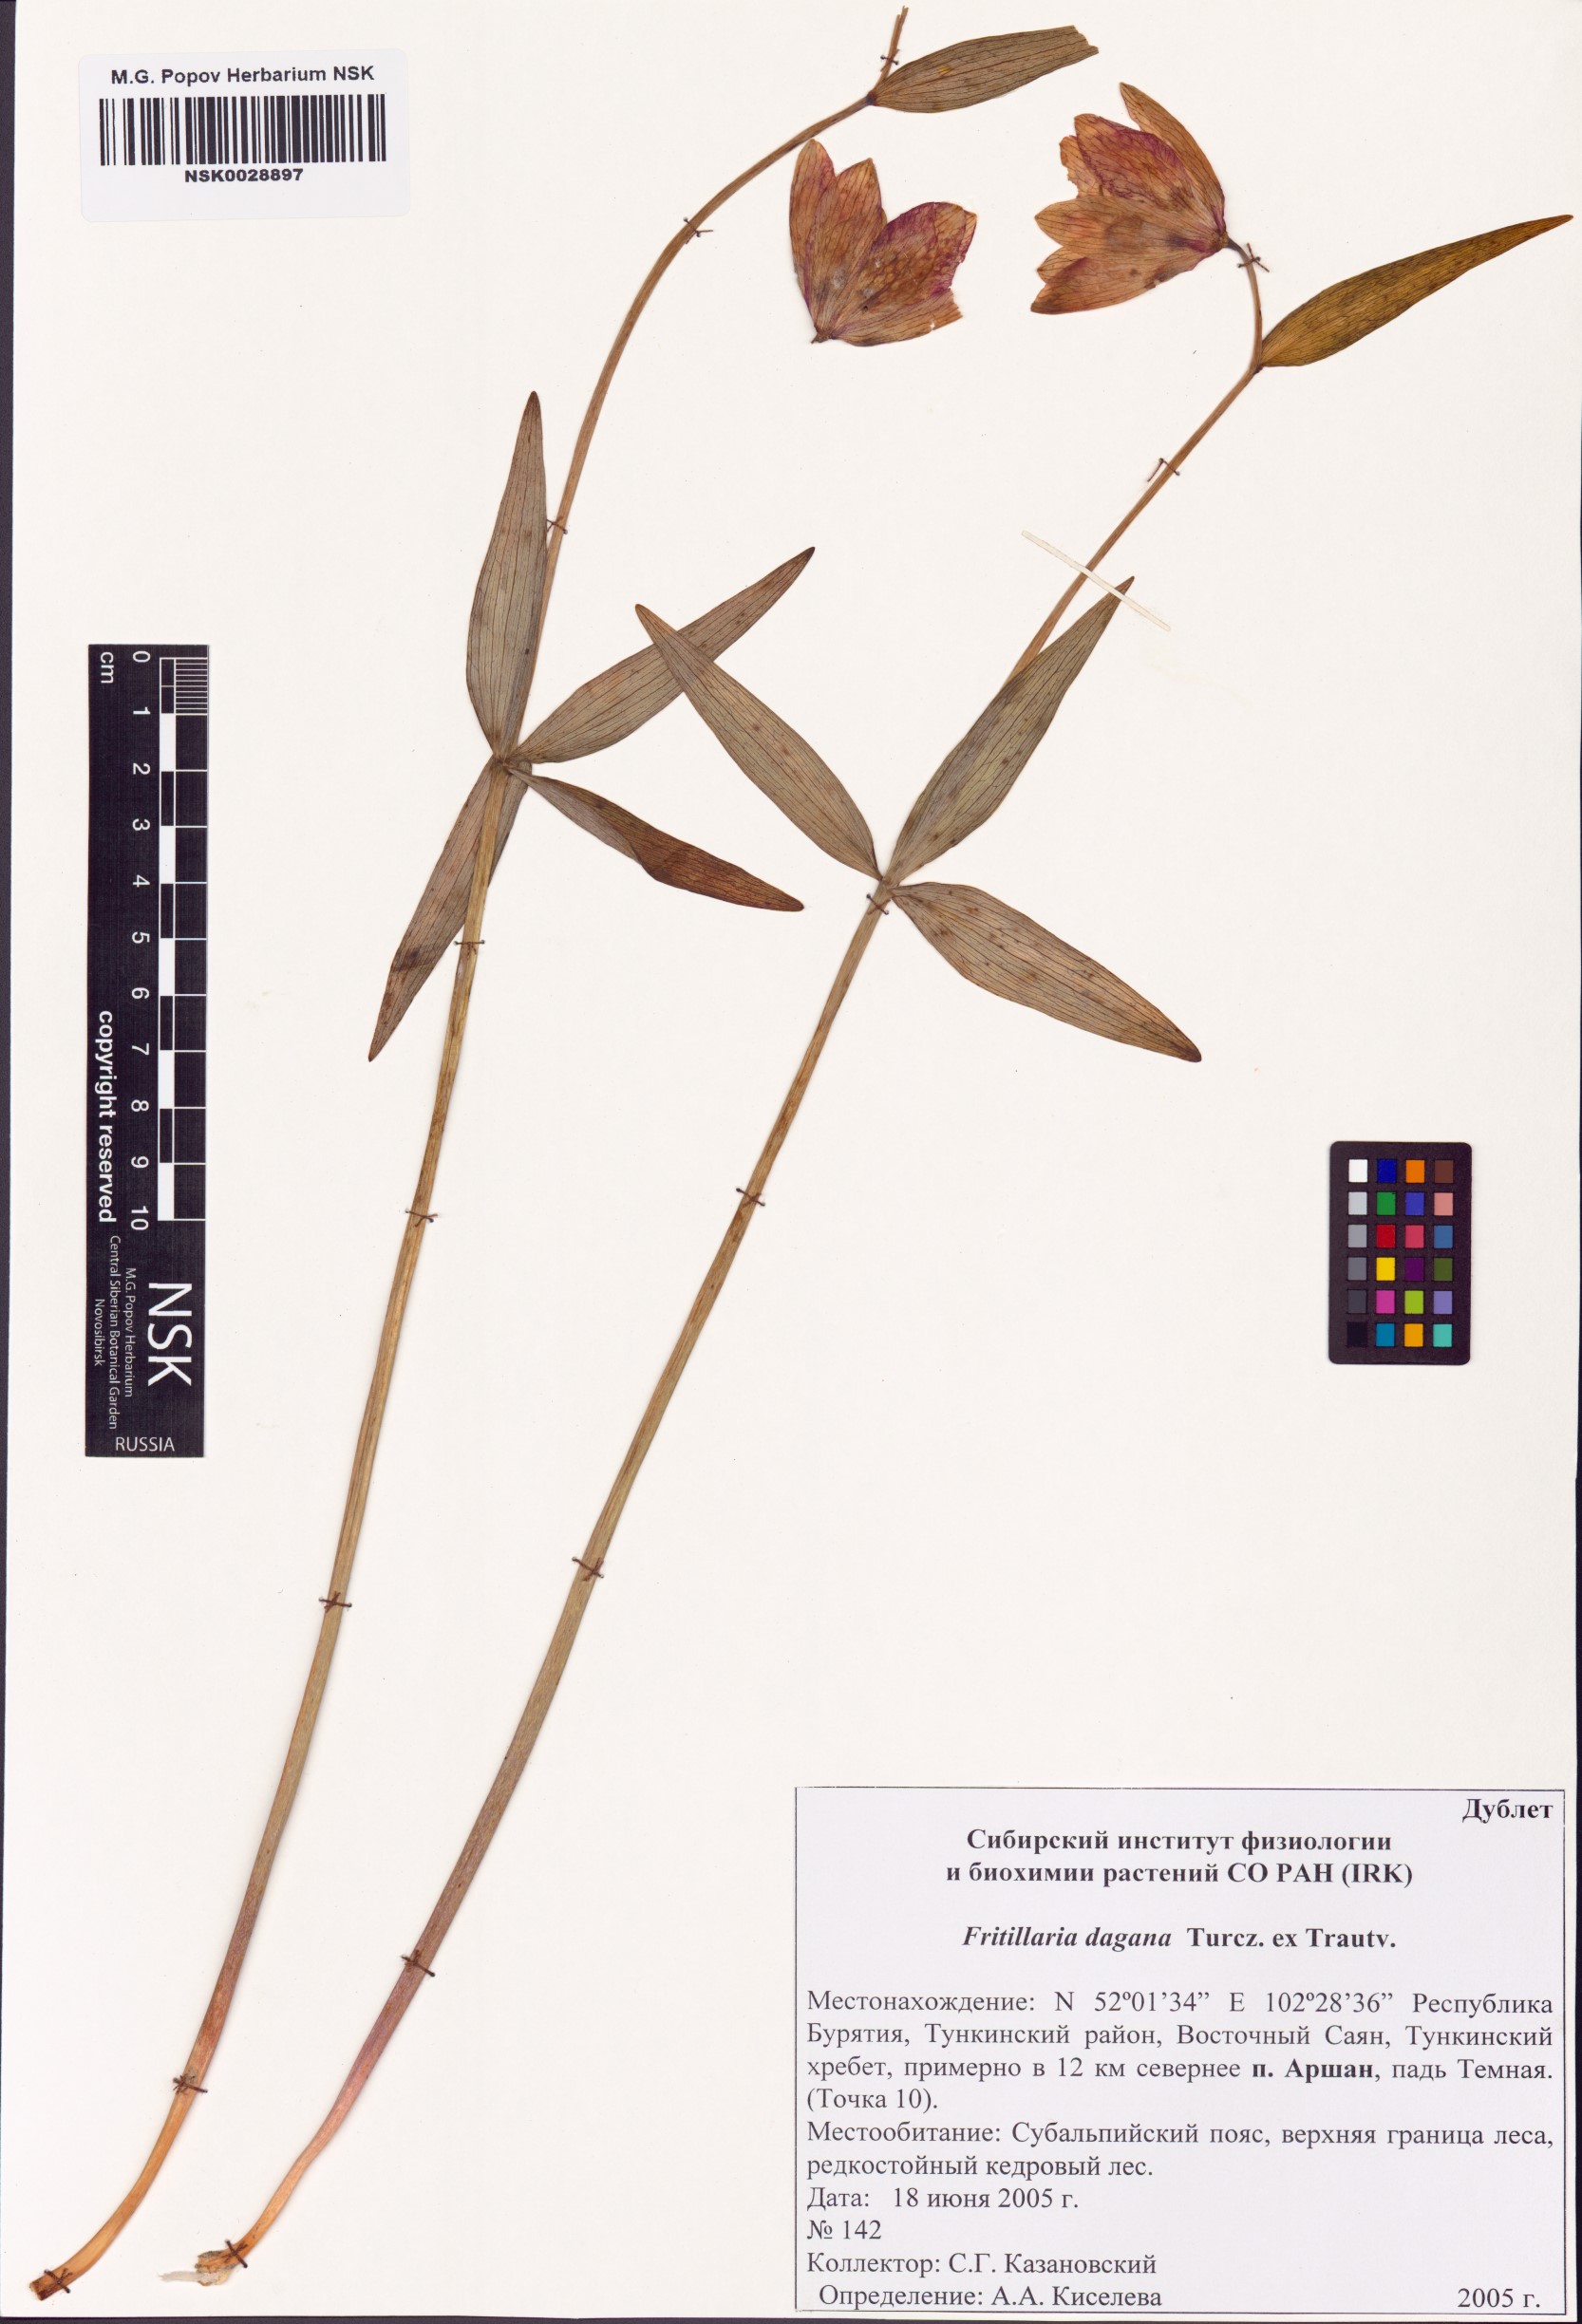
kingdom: Plantae
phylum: Tracheophyta
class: Liliopsida
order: Liliales
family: Liliaceae
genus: Fritillaria
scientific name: Fritillaria dagana
